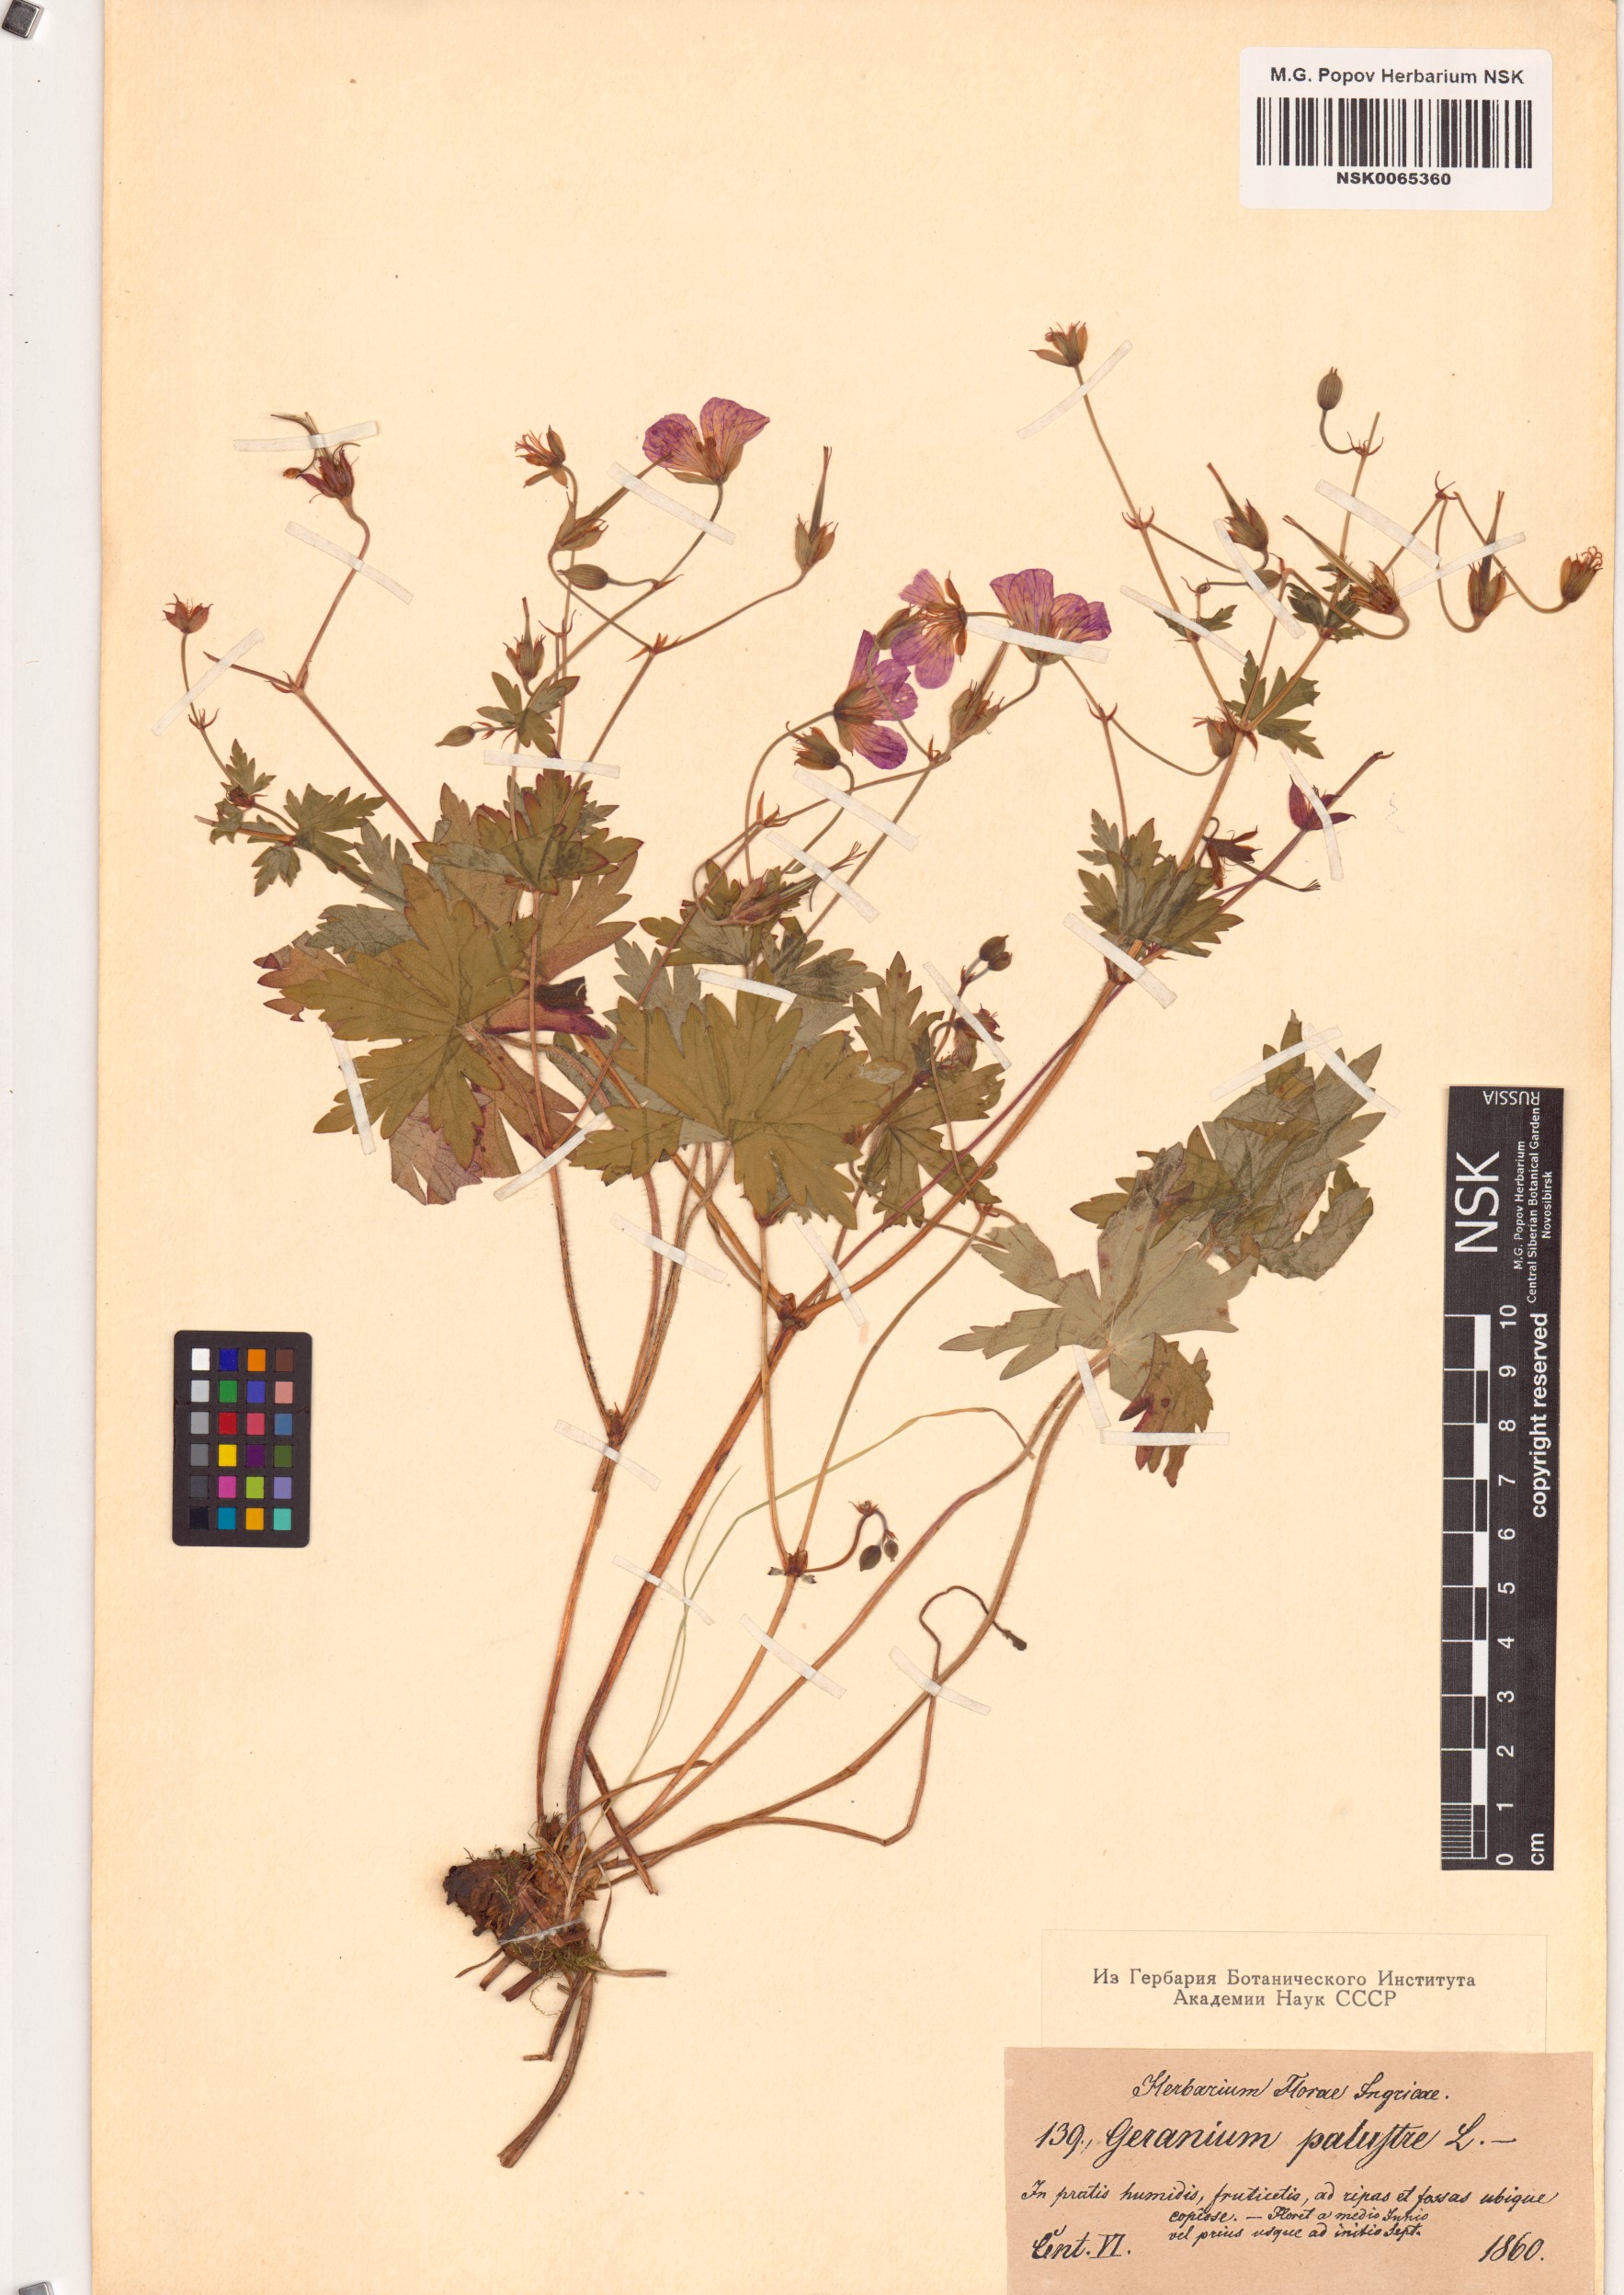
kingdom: Plantae
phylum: Tracheophyta
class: Magnoliopsida
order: Geraniales
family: Geraniaceae
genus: Geranium
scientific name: Geranium palustre
